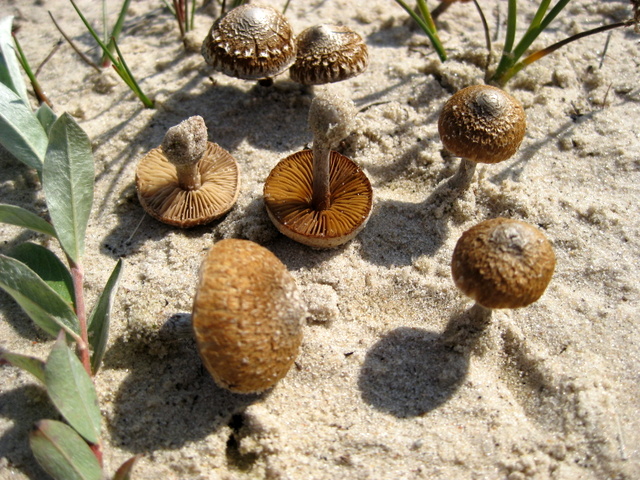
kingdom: Fungi
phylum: Basidiomycota
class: Agaricomycetes
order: Agaricales
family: Inocybaceae
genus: Inocybe
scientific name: Inocybe
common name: trævlhat
